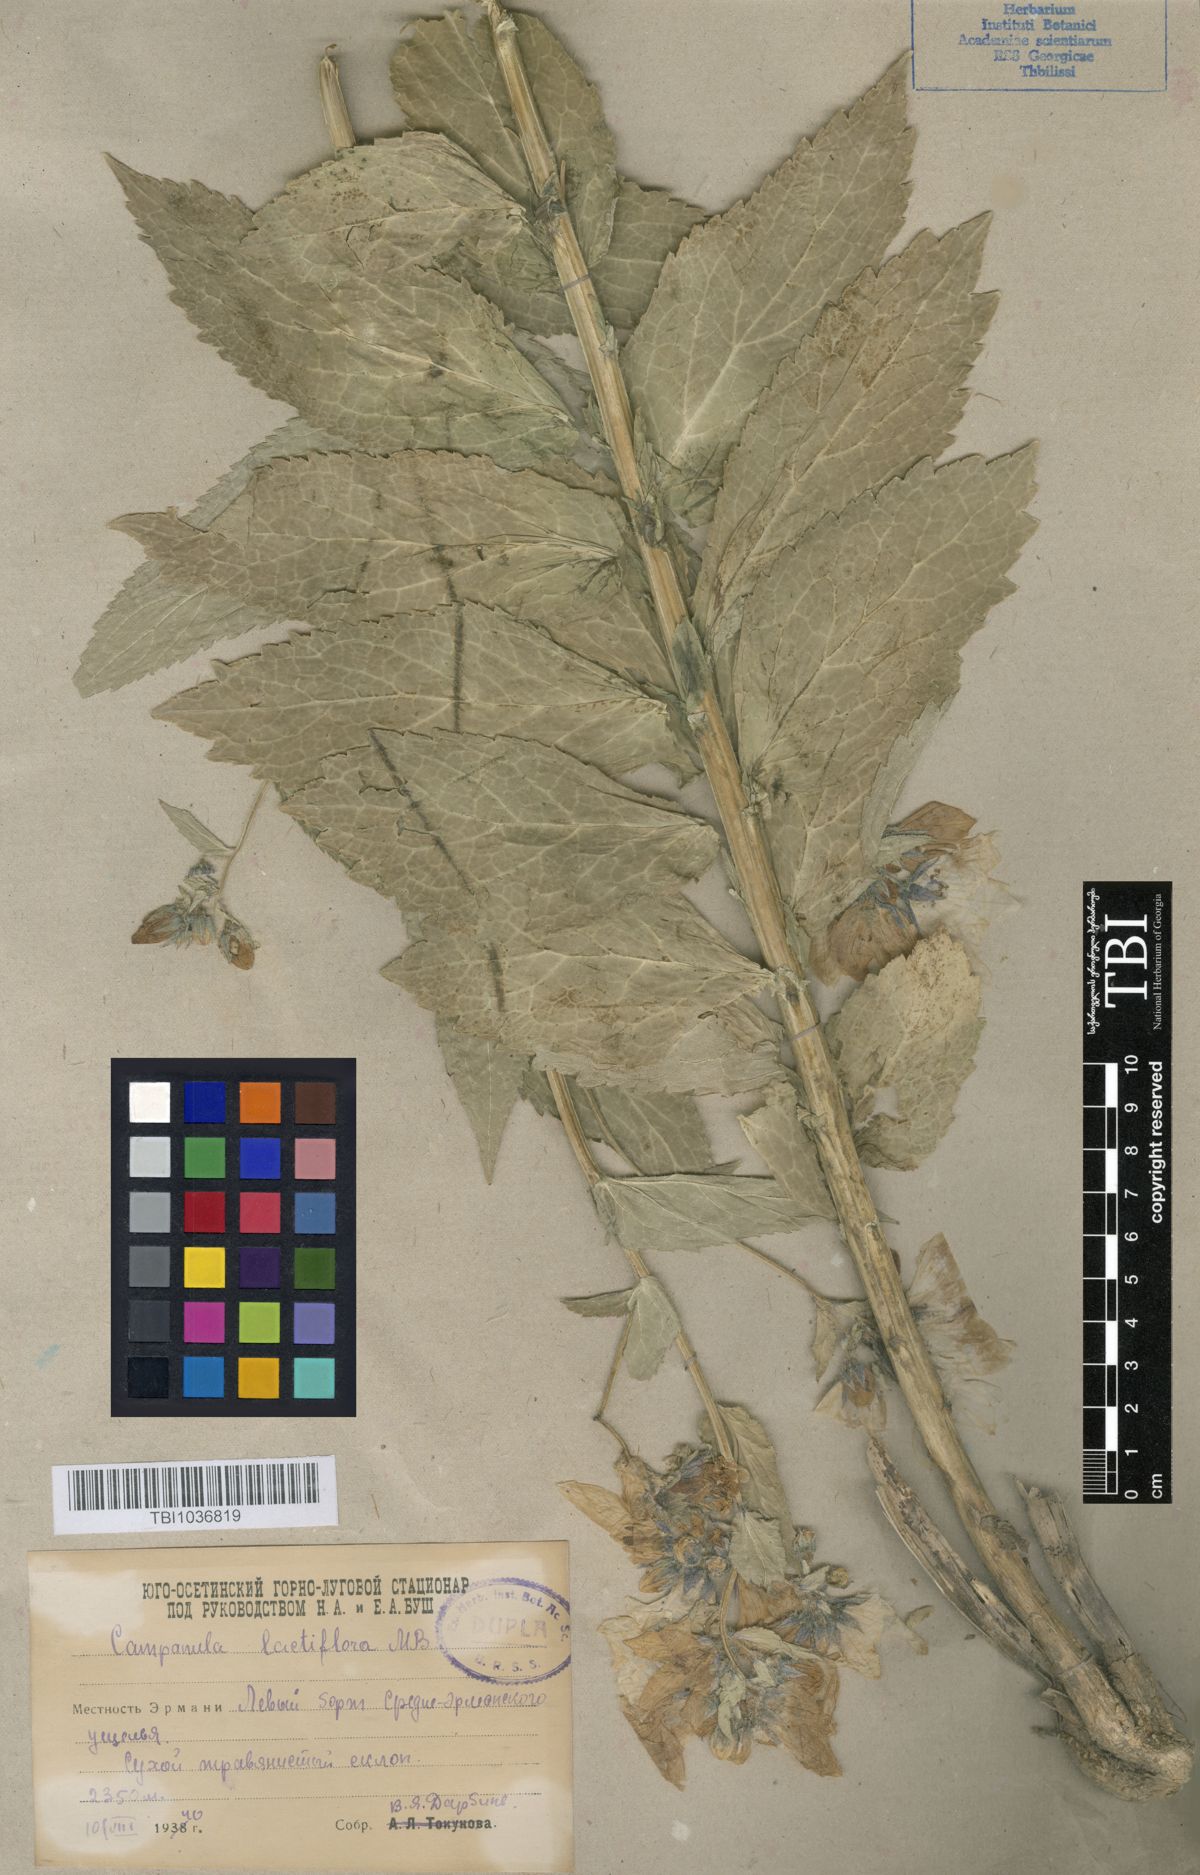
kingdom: Plantae
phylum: Tracheophyta
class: Magnoliopsida
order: Asterales
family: Campanulaceae
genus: Campanula
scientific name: Campanula lactiflora
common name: Milky bellflower
